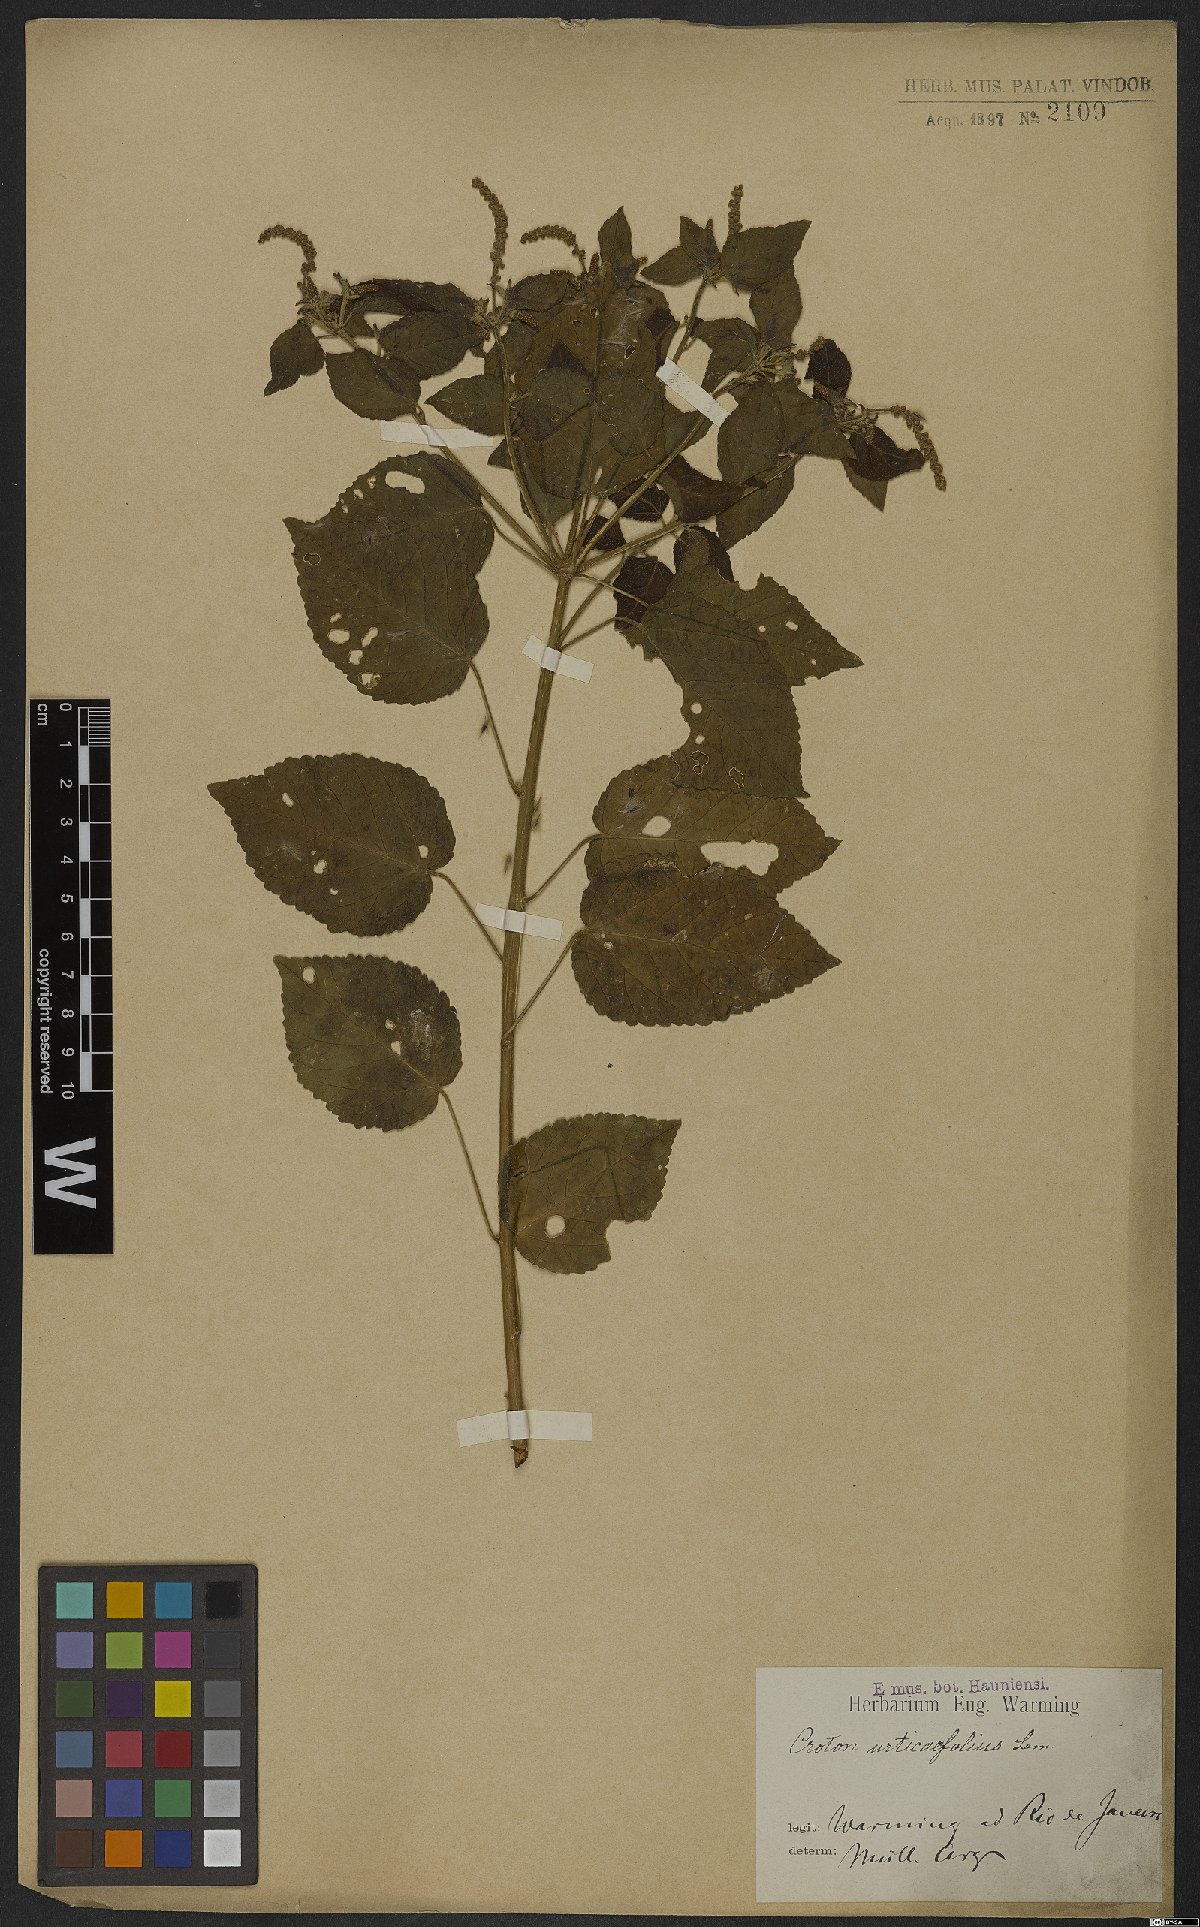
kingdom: Plantae
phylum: Tracheophyta
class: Magnoliopsida
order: Malpighiales
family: Euphorbiaceae
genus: Croton
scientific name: Croton urticifolius
